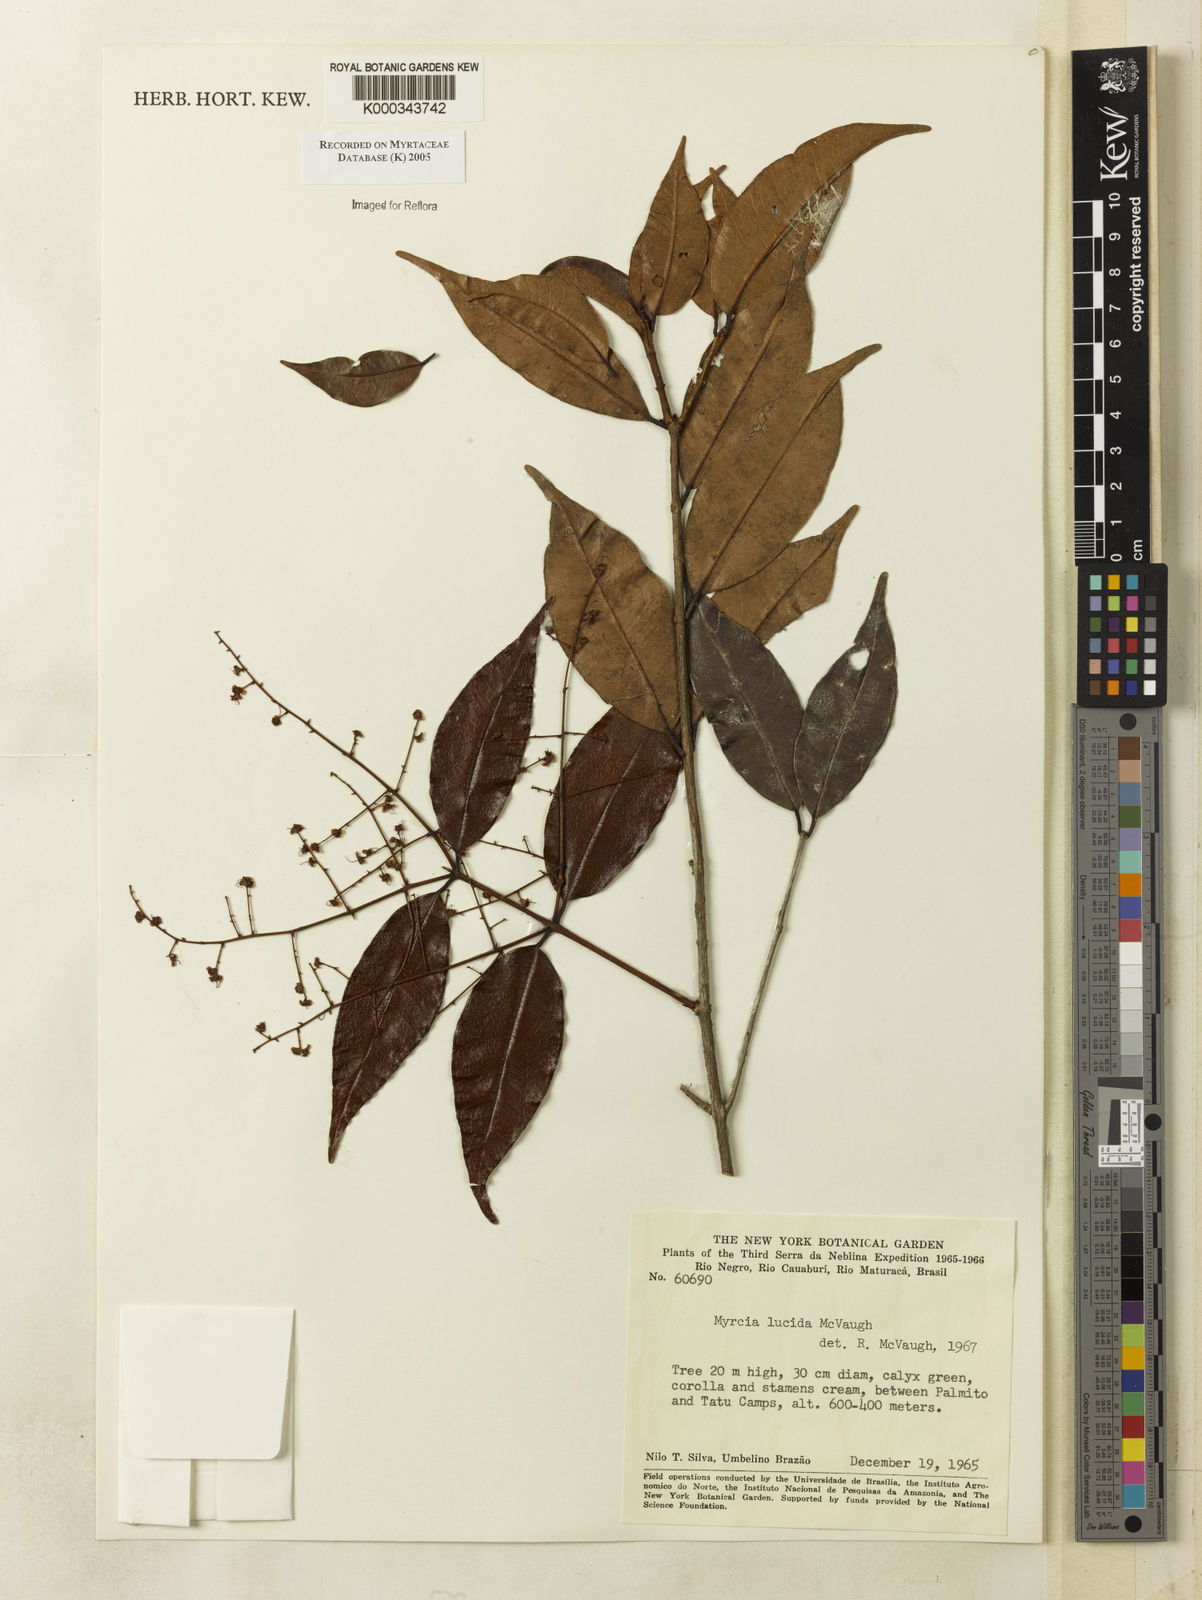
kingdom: Plantae
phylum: Tracheophyta
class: Magnoliopsida
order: Myrtales
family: Myrtaceae
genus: Myrcia
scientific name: Myrcia inaequiloba
